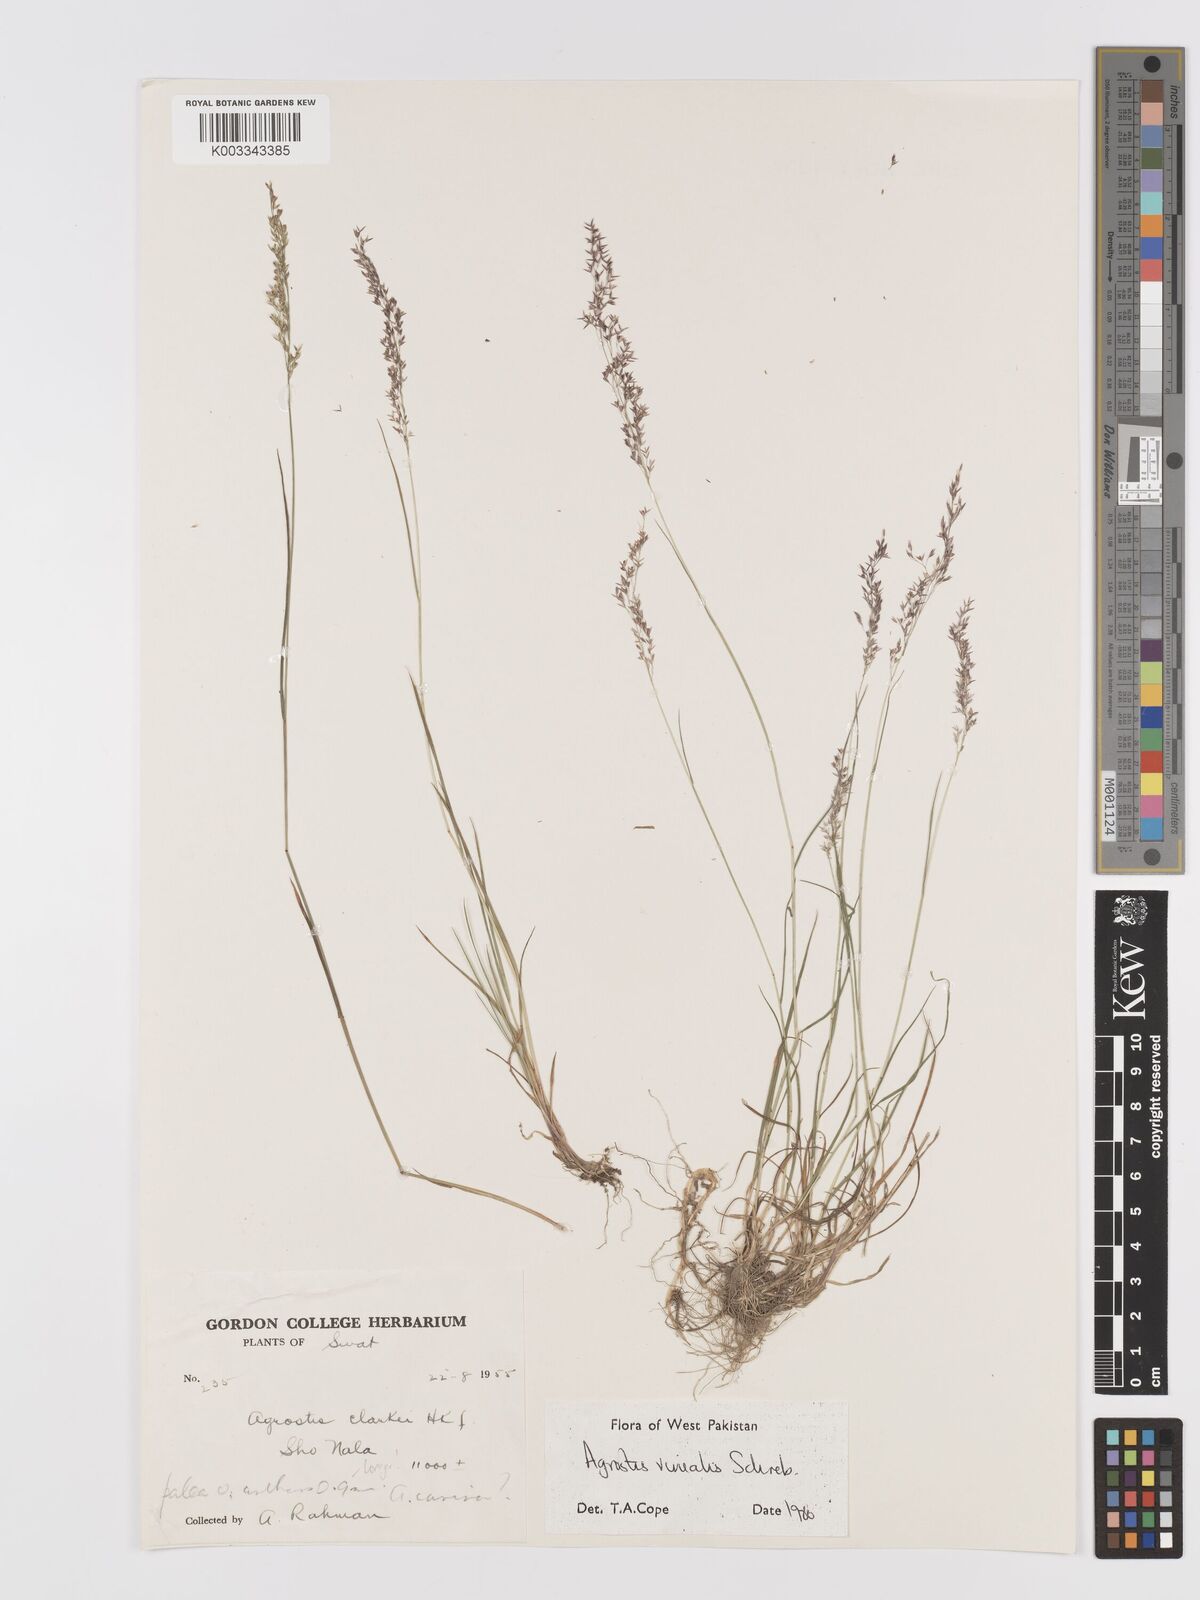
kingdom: Plantae
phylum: Tracheophyta
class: Liliopsida
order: Poales
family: Poaceae
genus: Agrostis
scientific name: Agrostis vinealis
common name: Brown bent
